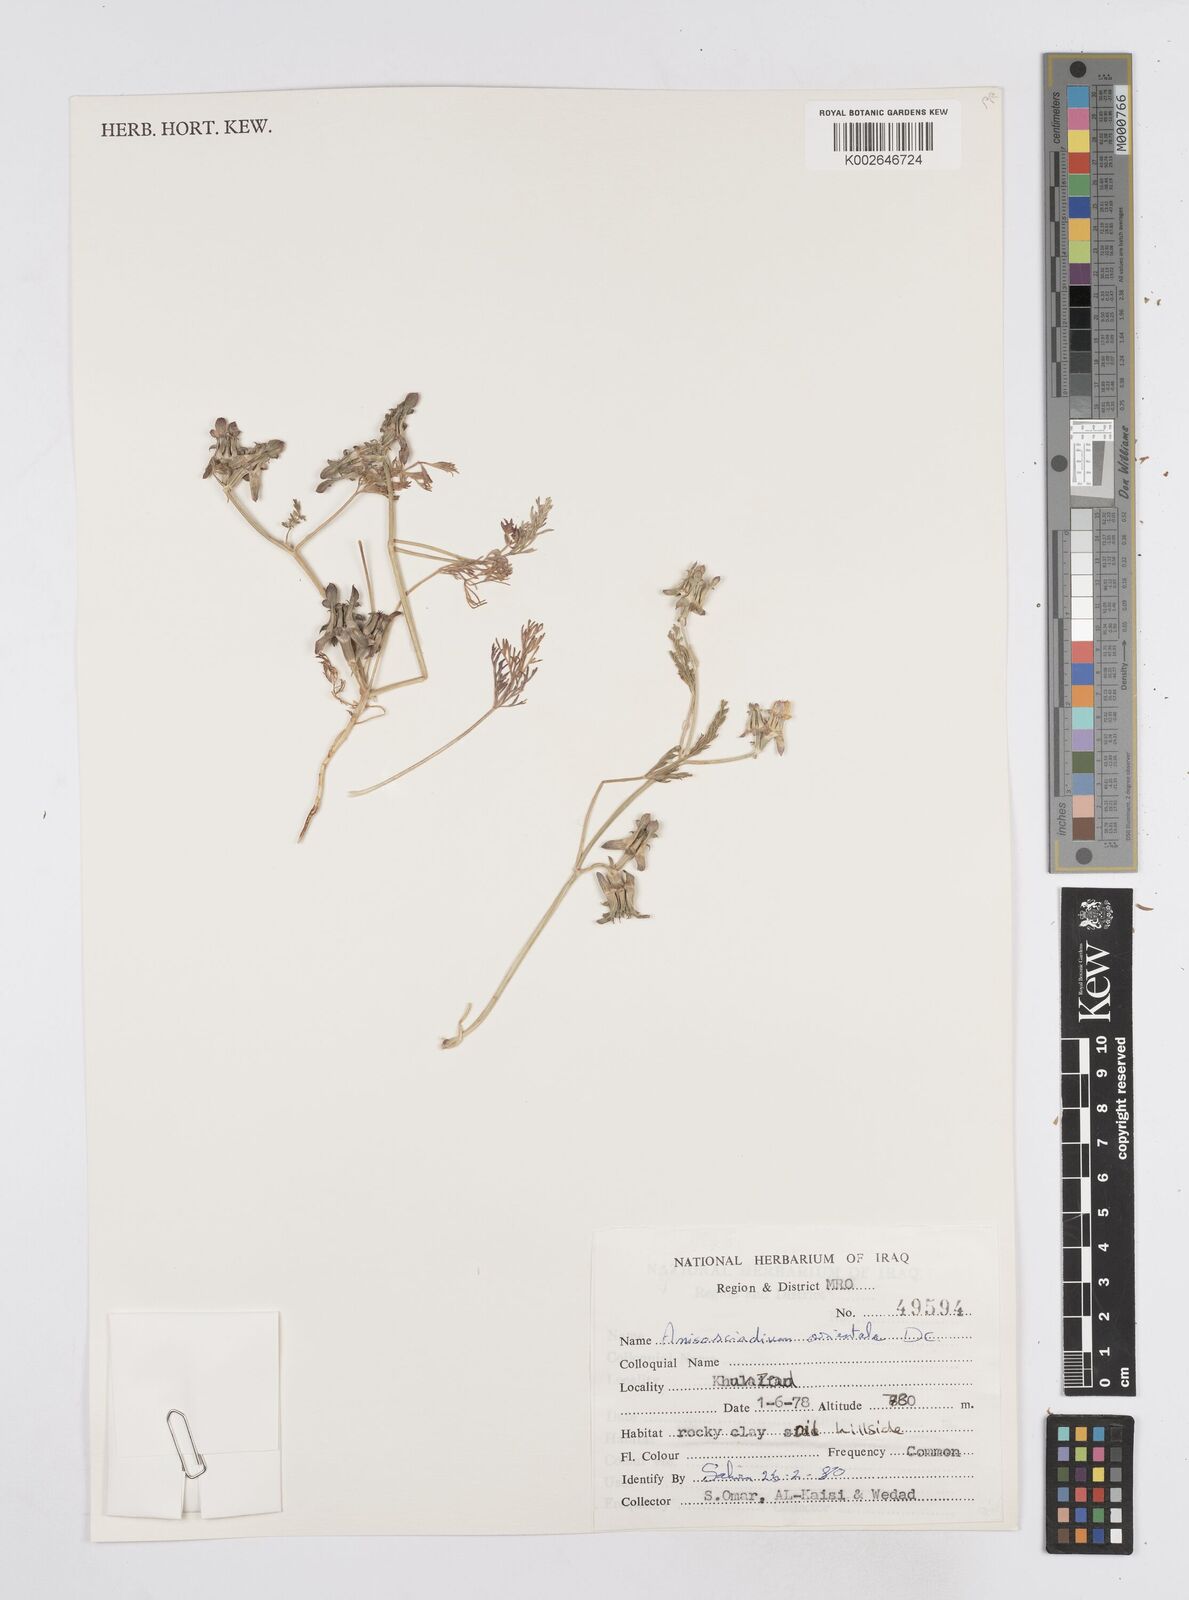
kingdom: Plantae
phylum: Tracheophyta
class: Magnoliopsida
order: Apiales
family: Apiaceae
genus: Anisosciadium
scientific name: Anisosciadium orientale
